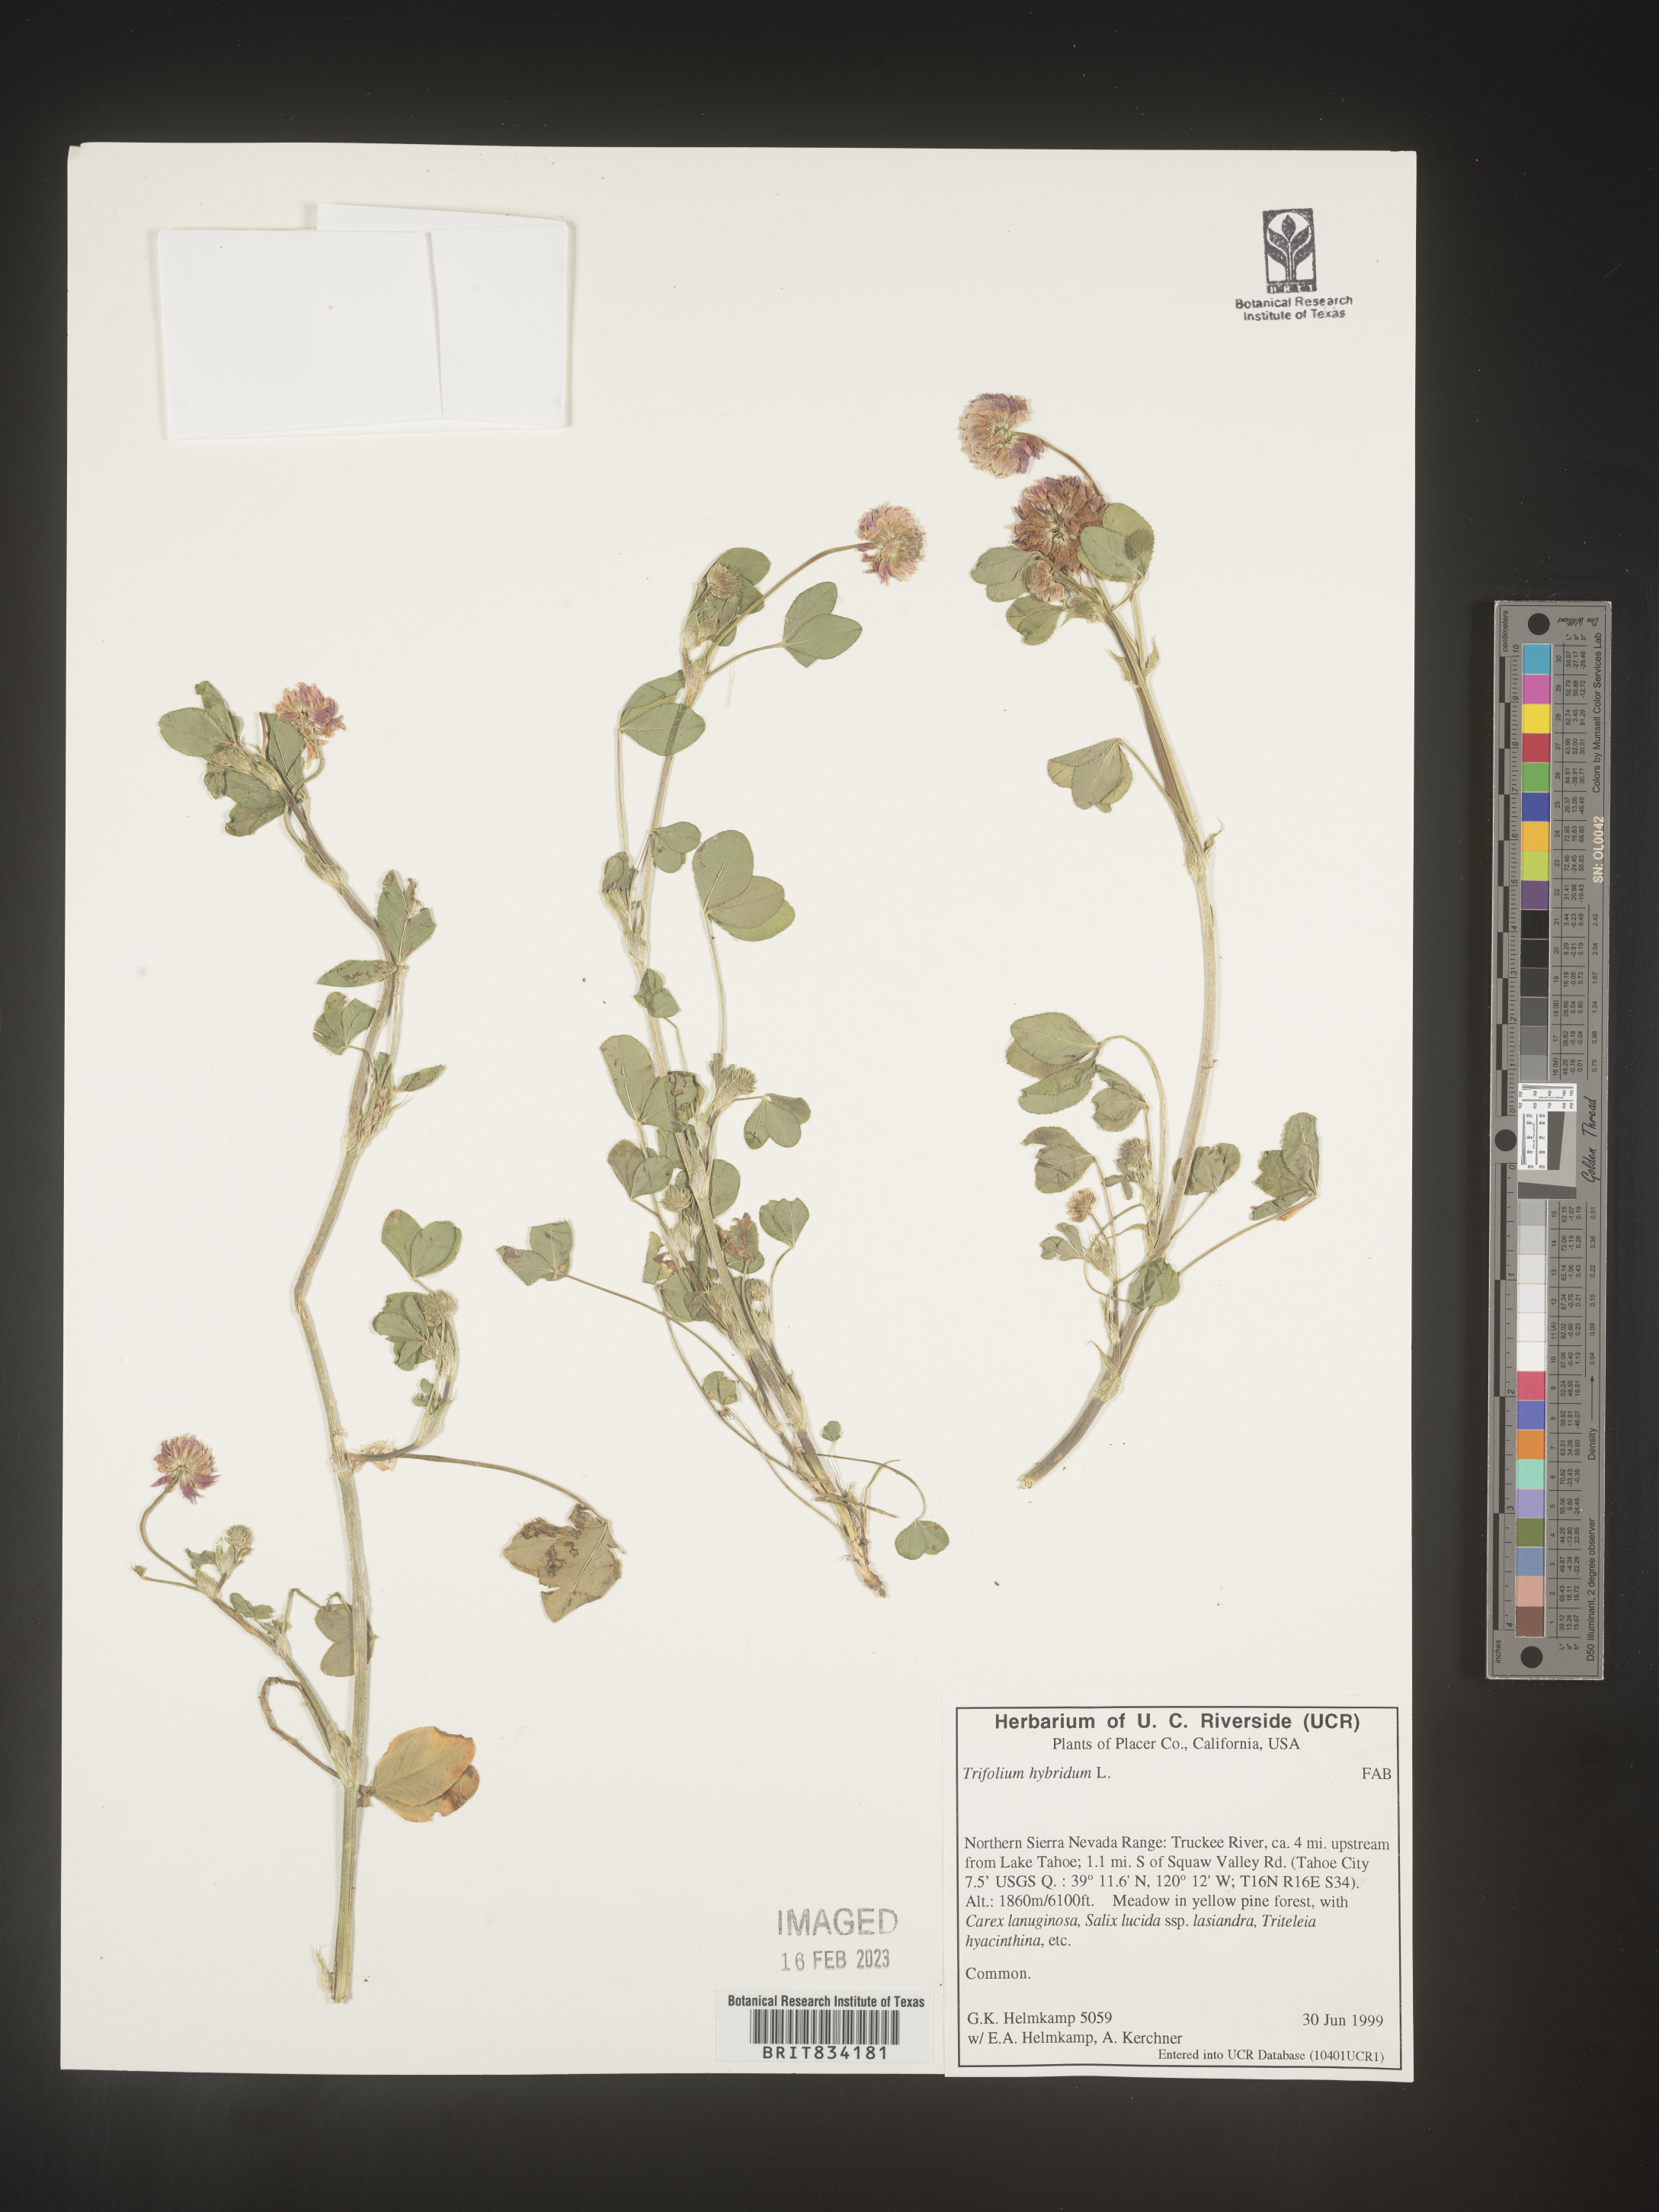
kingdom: Plantae
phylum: Tracheophyta
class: Magnoliopsida
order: Fabales
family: Fabaceae
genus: Trifolium
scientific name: Trifolium hybridum
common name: Alsike clover
